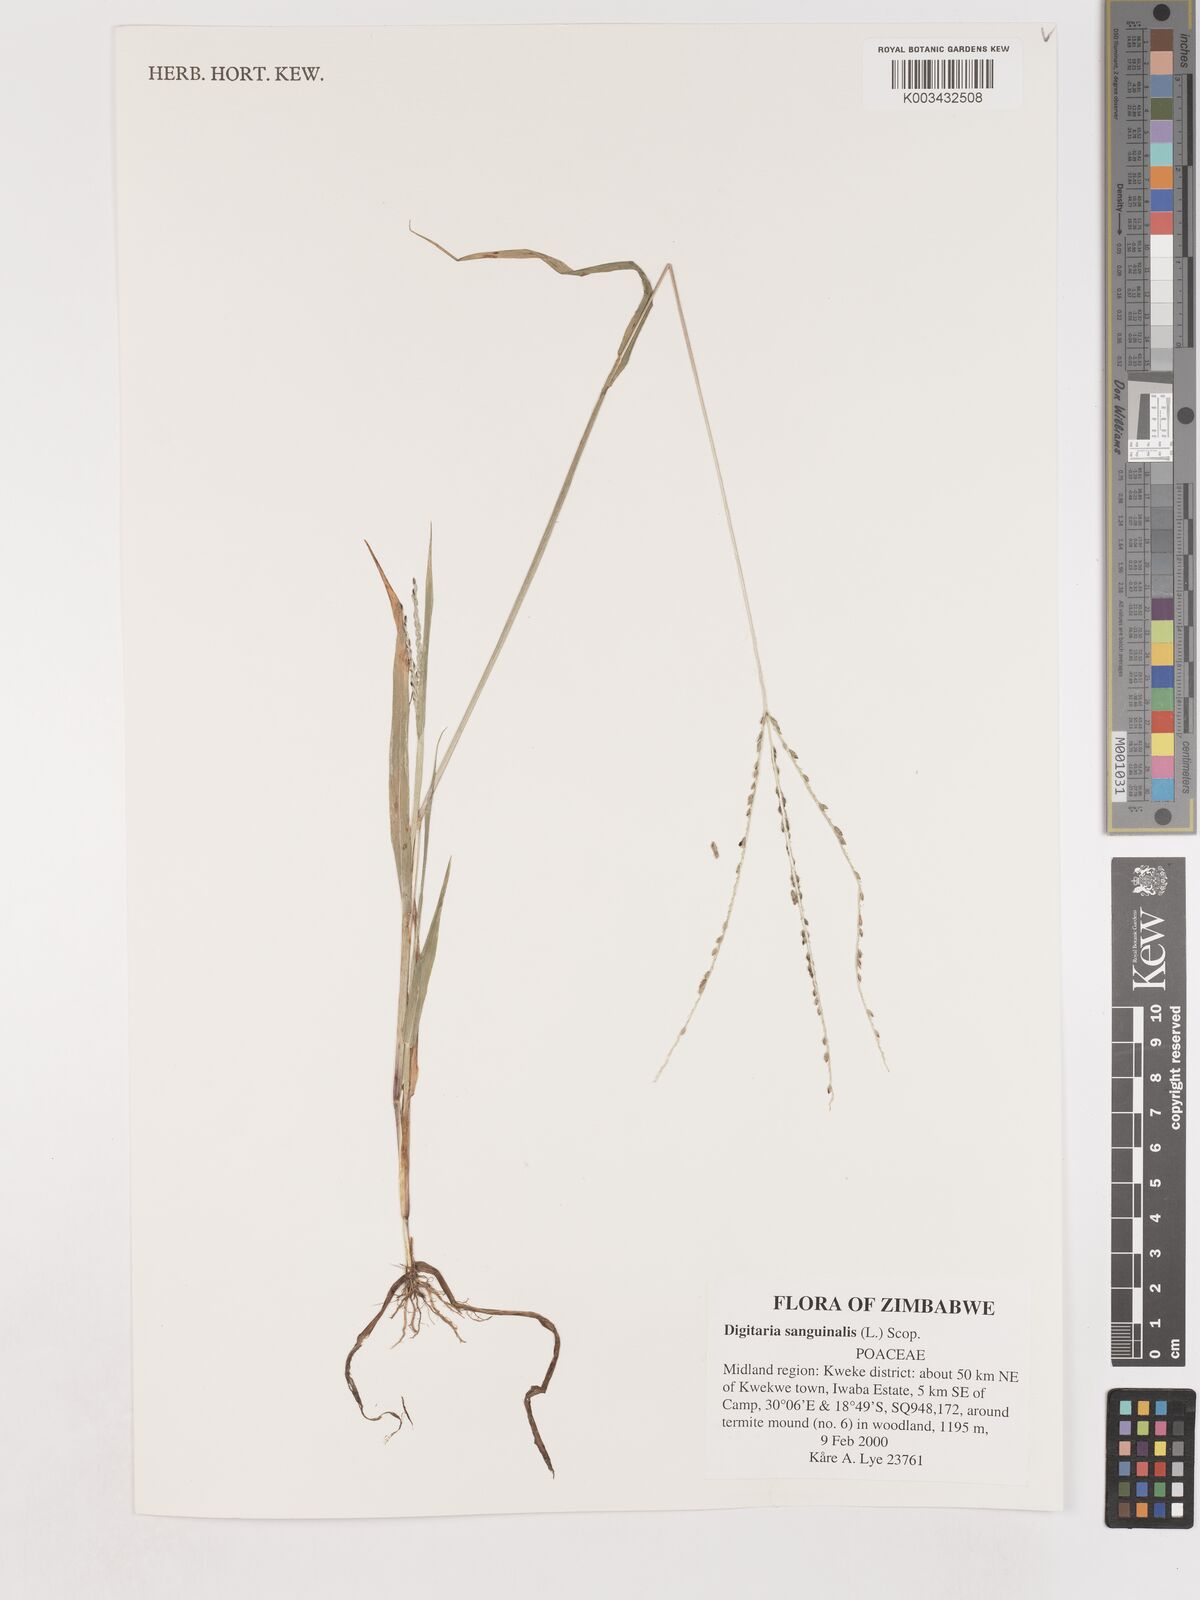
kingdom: Plantae
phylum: Tracheophyta
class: Liliopsida
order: Poales
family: Poaceae
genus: Digitaria
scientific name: Digitaria sanguinalis
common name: Hairy crabgrass
